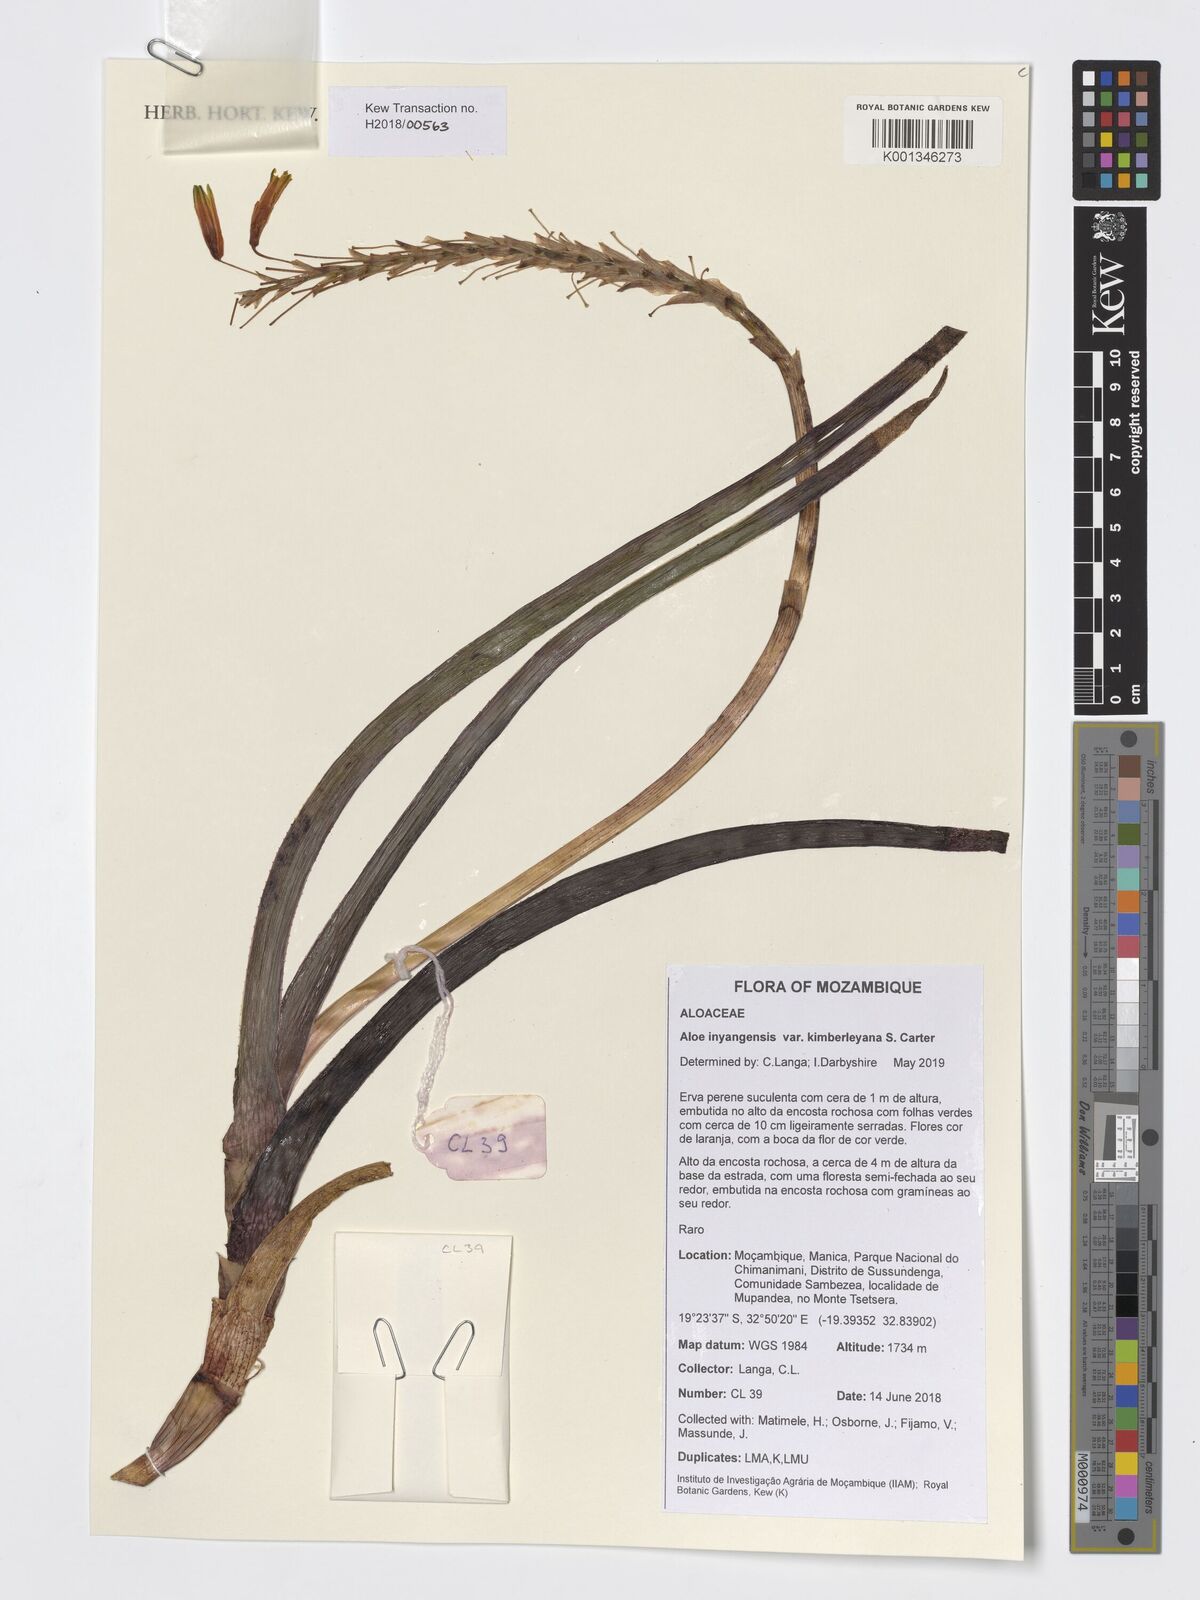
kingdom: Plantae
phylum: Tracheophyta
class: Liliopsida
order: Asparagales
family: Asphodelaceae
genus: Aloe
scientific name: Aloe inyangensis
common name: Inyanga aloe
